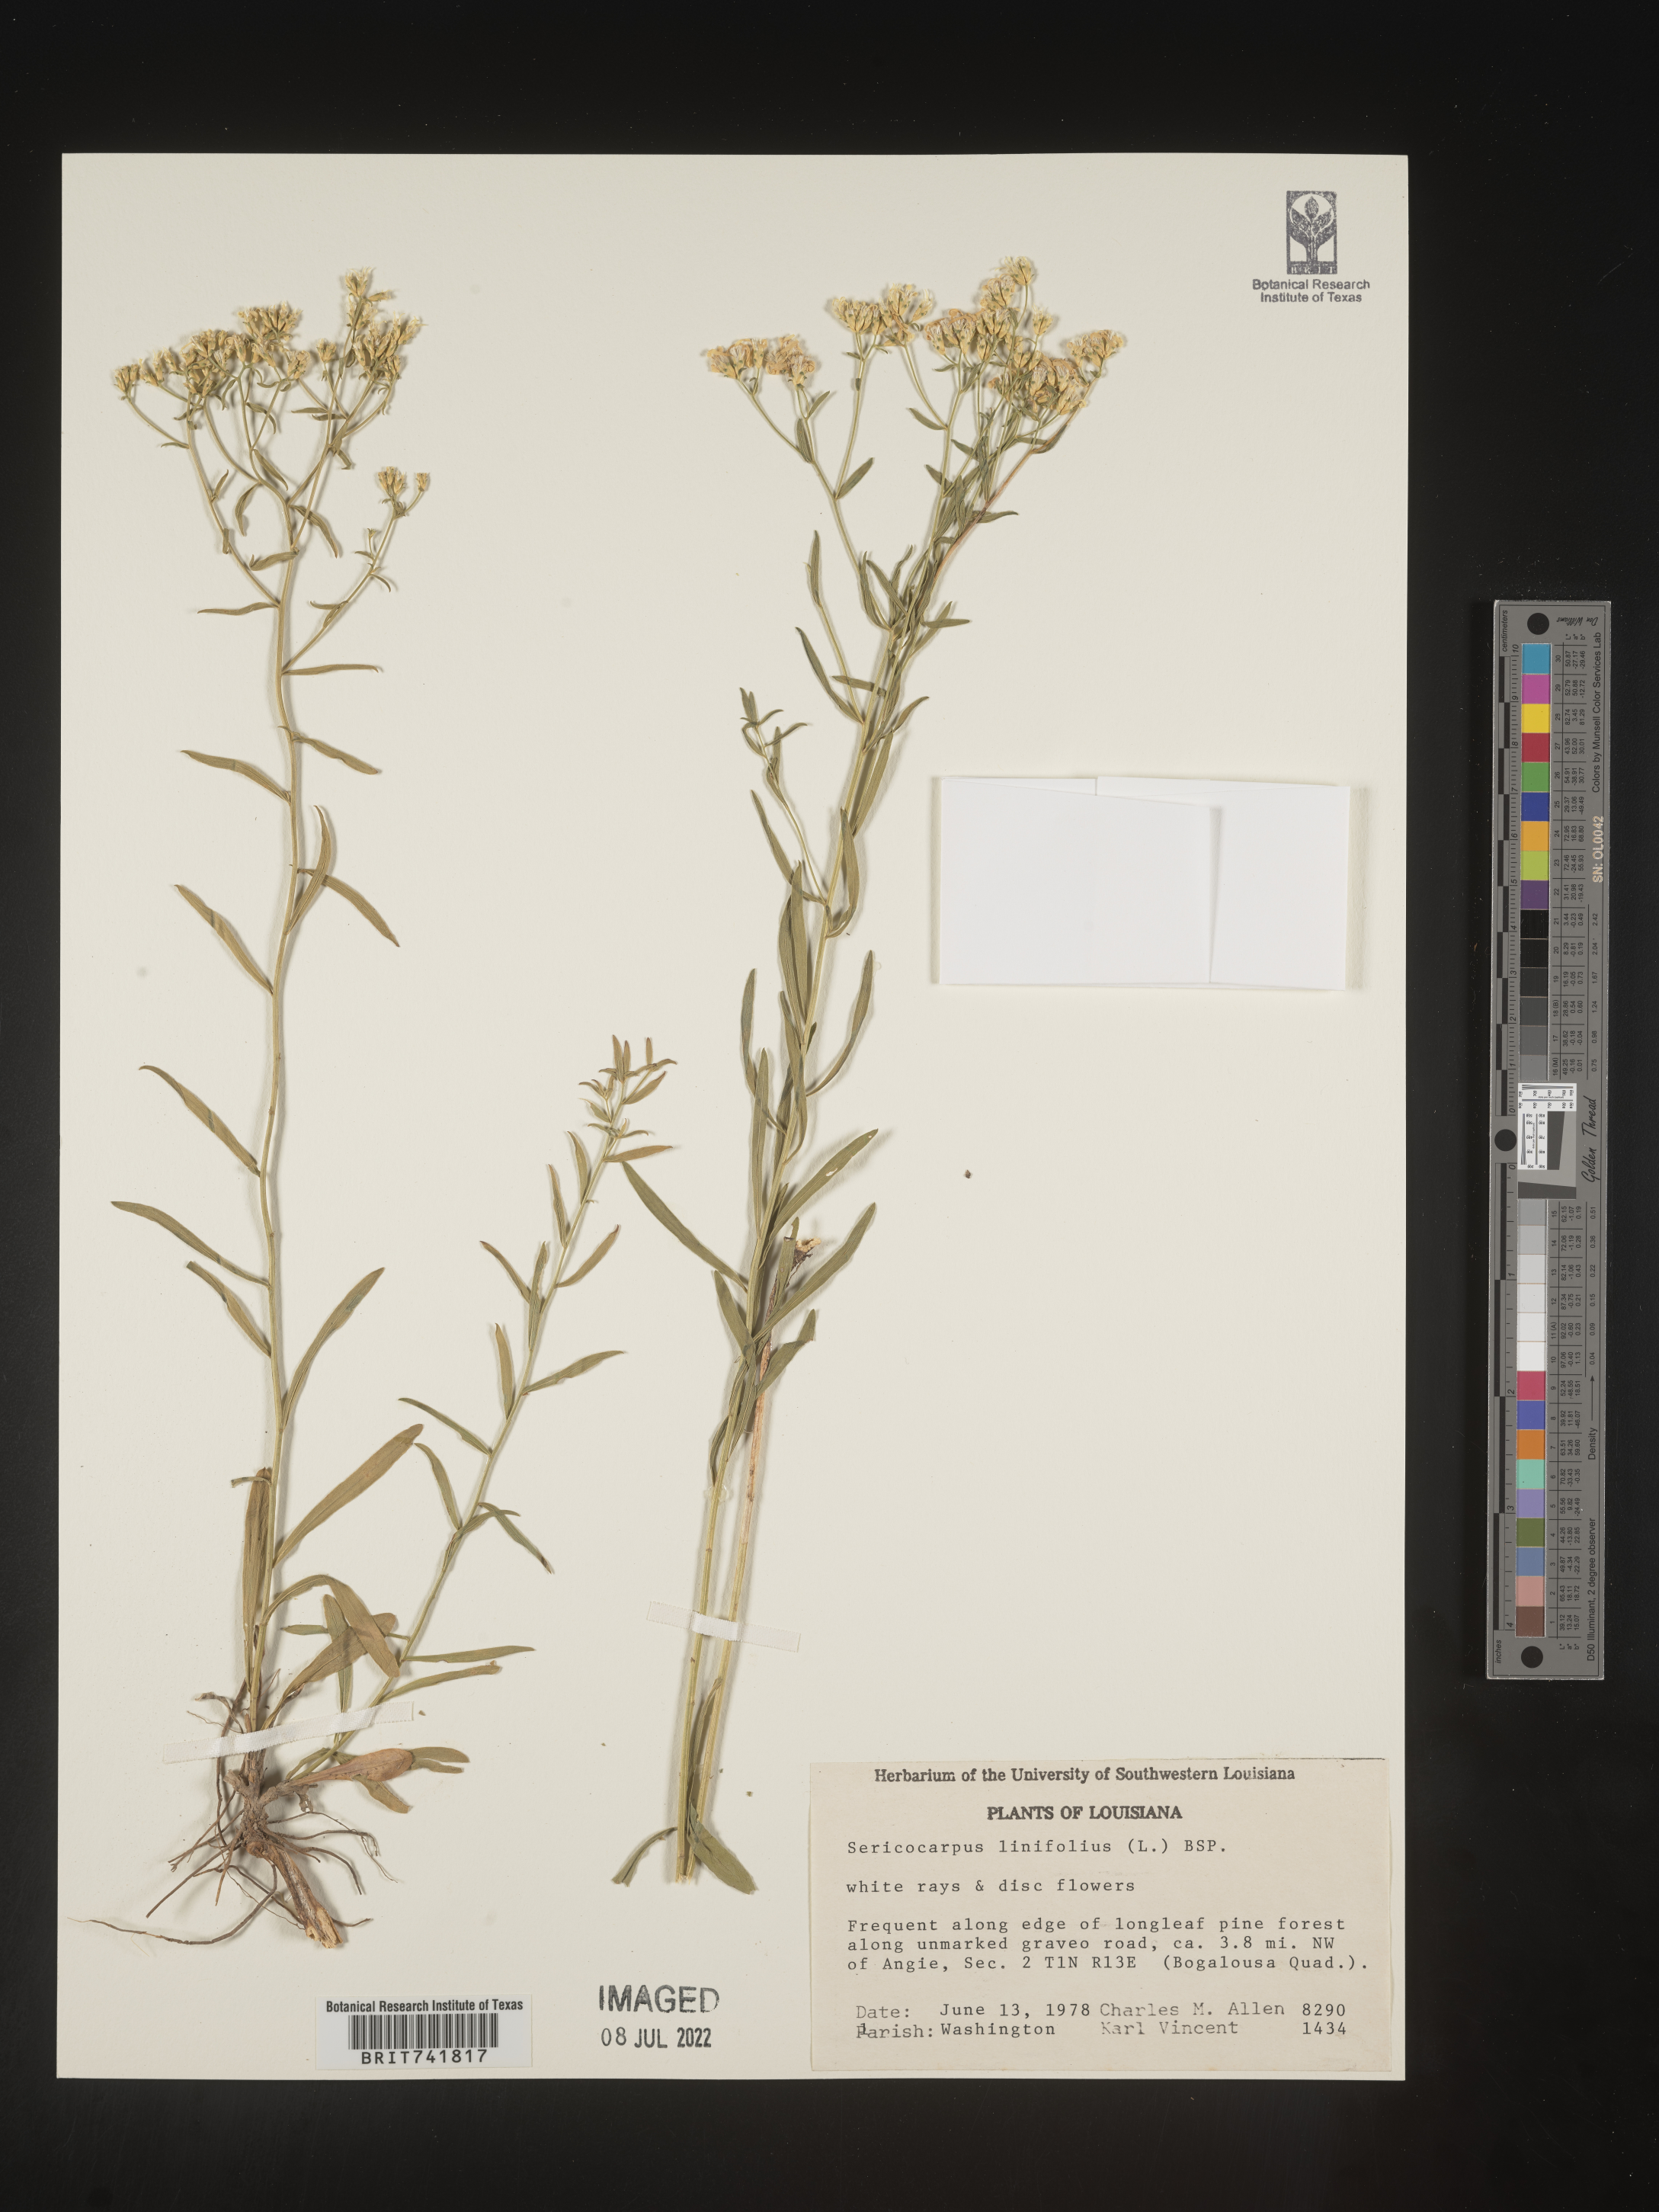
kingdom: Plantae
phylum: Tracheophyta
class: Magnoliopsida
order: Asterales
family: Asteraceae
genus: Sericocarpus
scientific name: Sericocarpus linifolius
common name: Narrow-leaf aster
